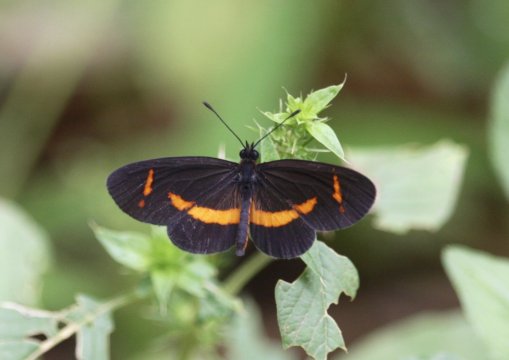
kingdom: Animalia
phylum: Arthropoda
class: Insecta
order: Lepidoptera
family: Nymphalidae
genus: Microtia
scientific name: Microtia elva
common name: Elf
